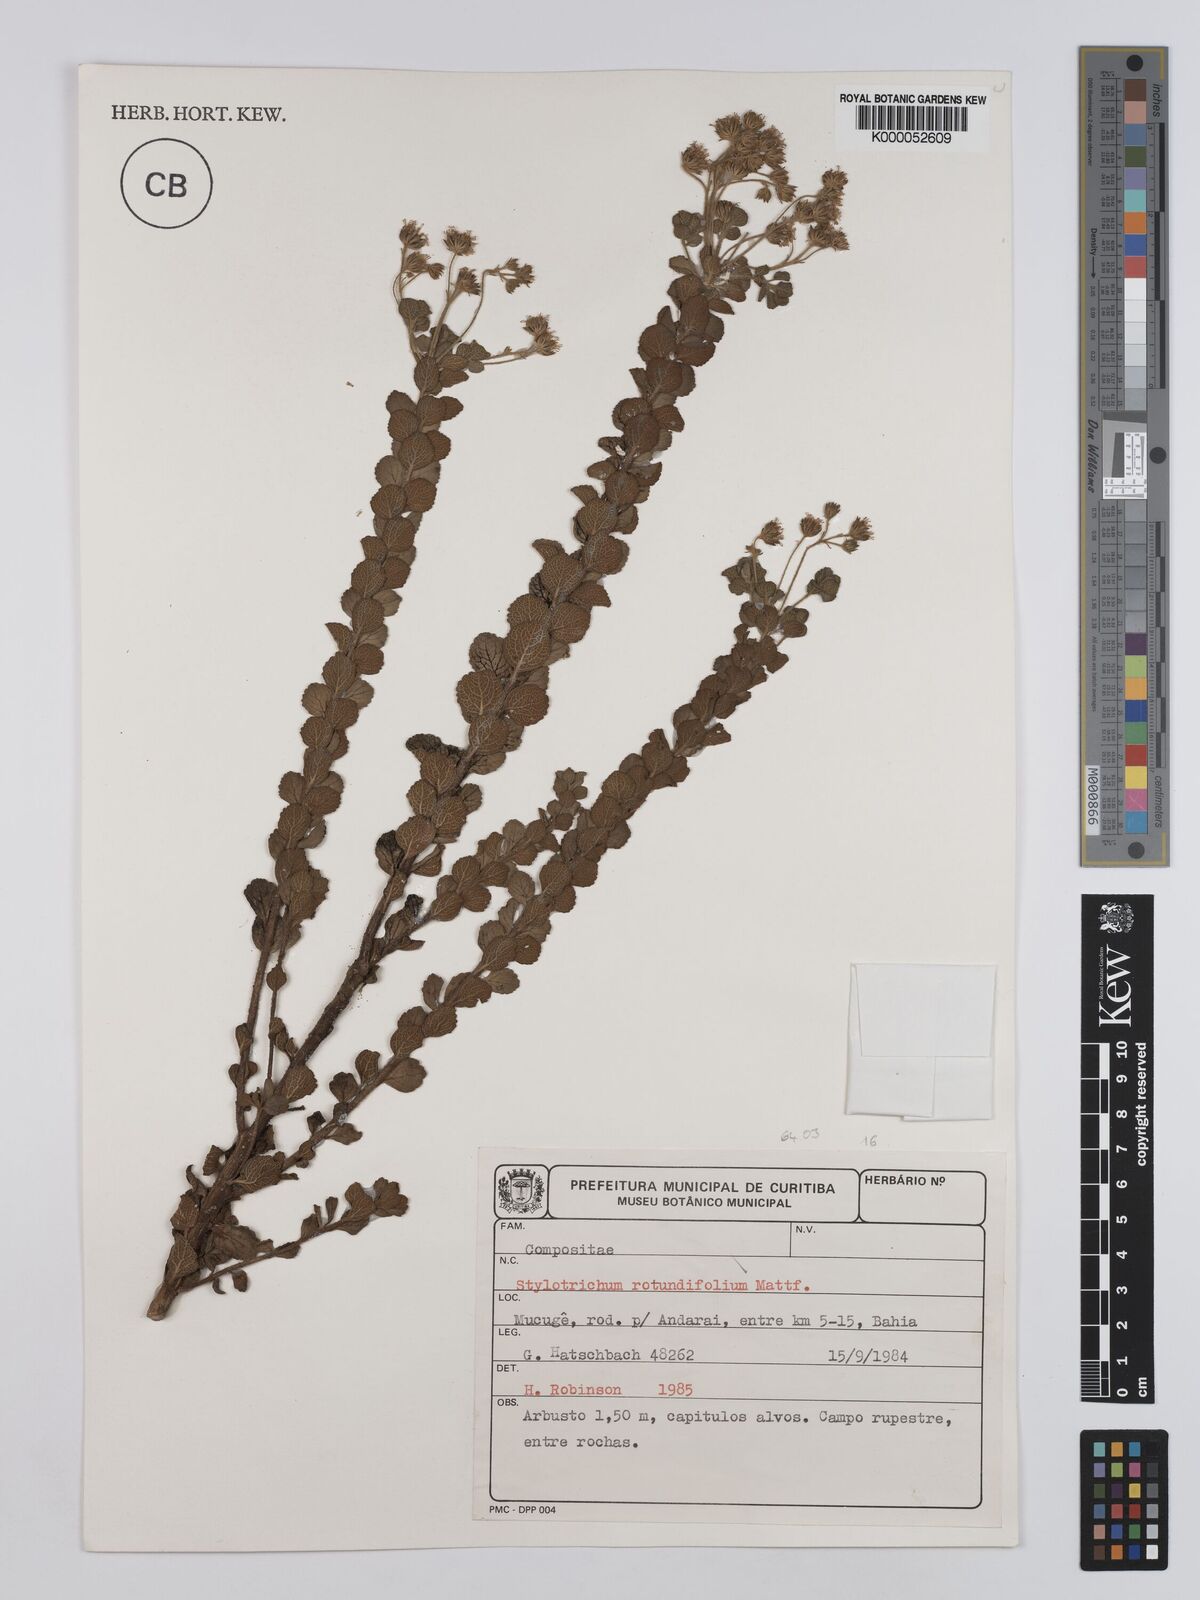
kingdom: Plantae
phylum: Tracheophyta
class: Magnoliopsida
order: Asterales
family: Asteraceae
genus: Stylotrichium
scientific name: Stylotrichium rotundifolium
